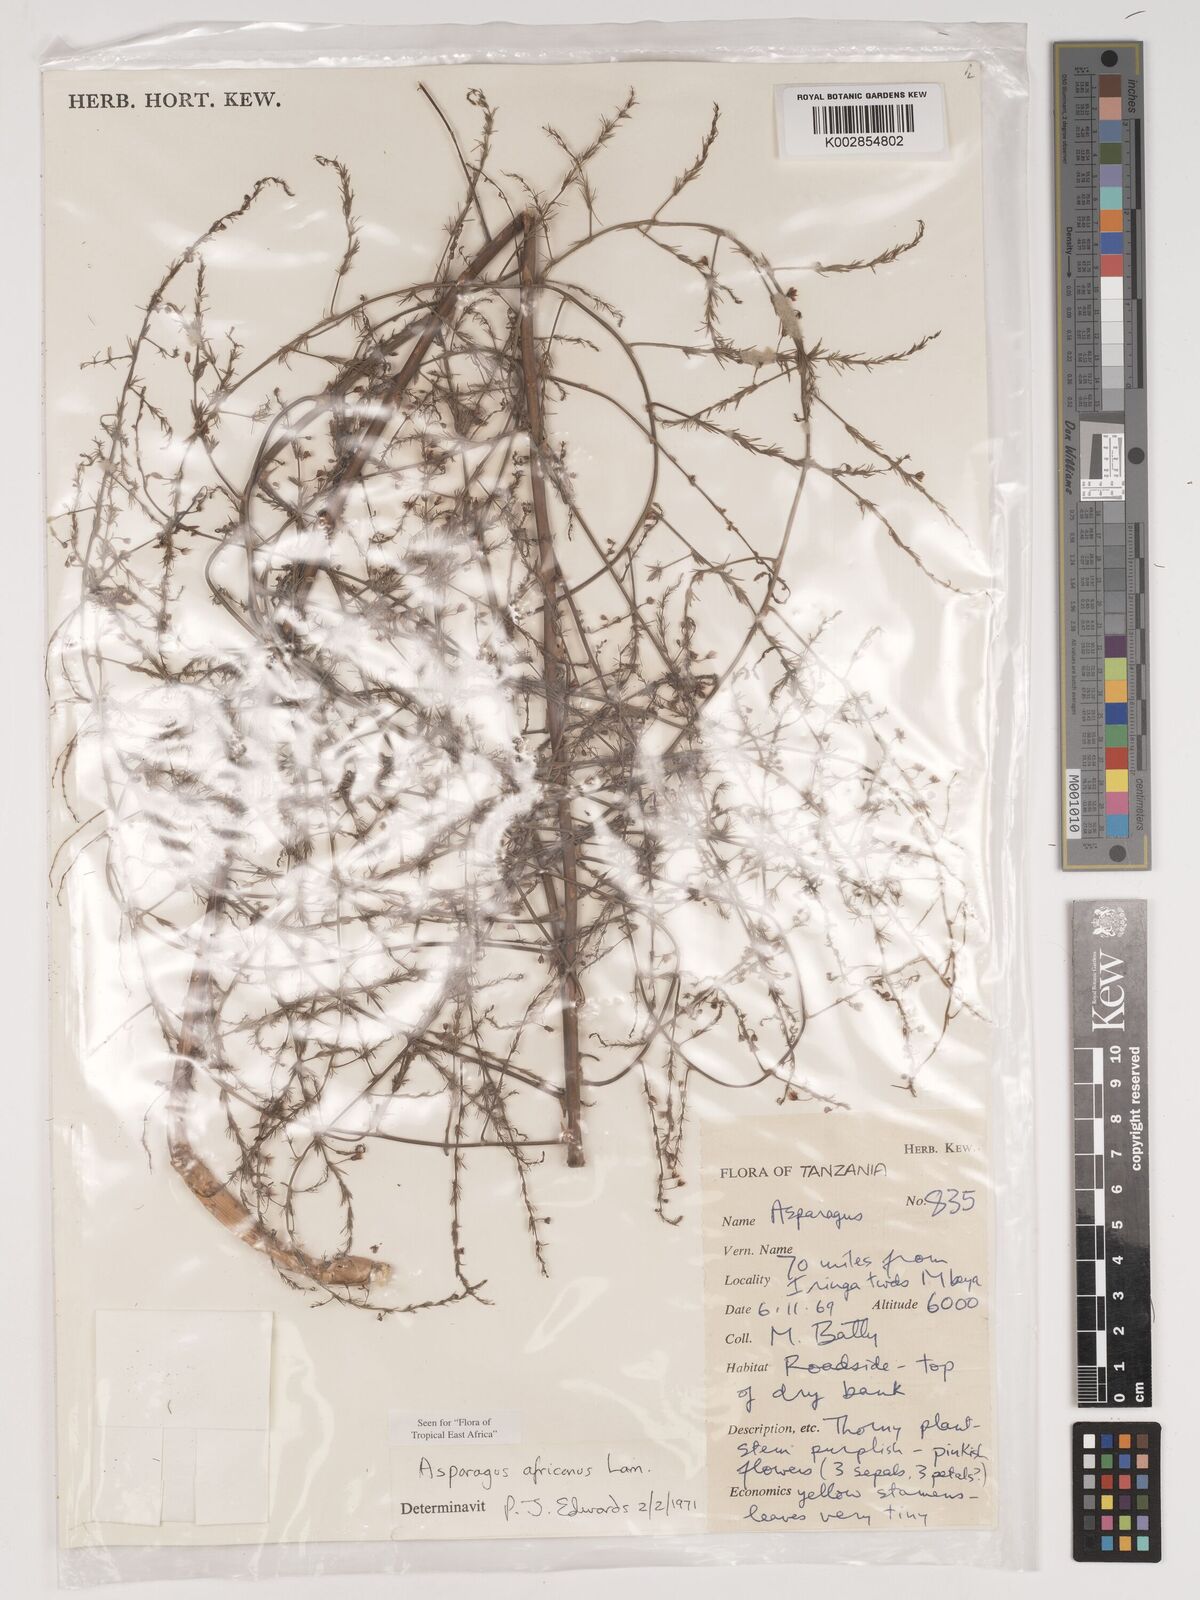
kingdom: Plantae
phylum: Tracheophyta
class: Liliopsida
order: Asparagales
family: Asparagaceae
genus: Asparagus
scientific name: Asparagus africanus
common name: Asparagus-fern
